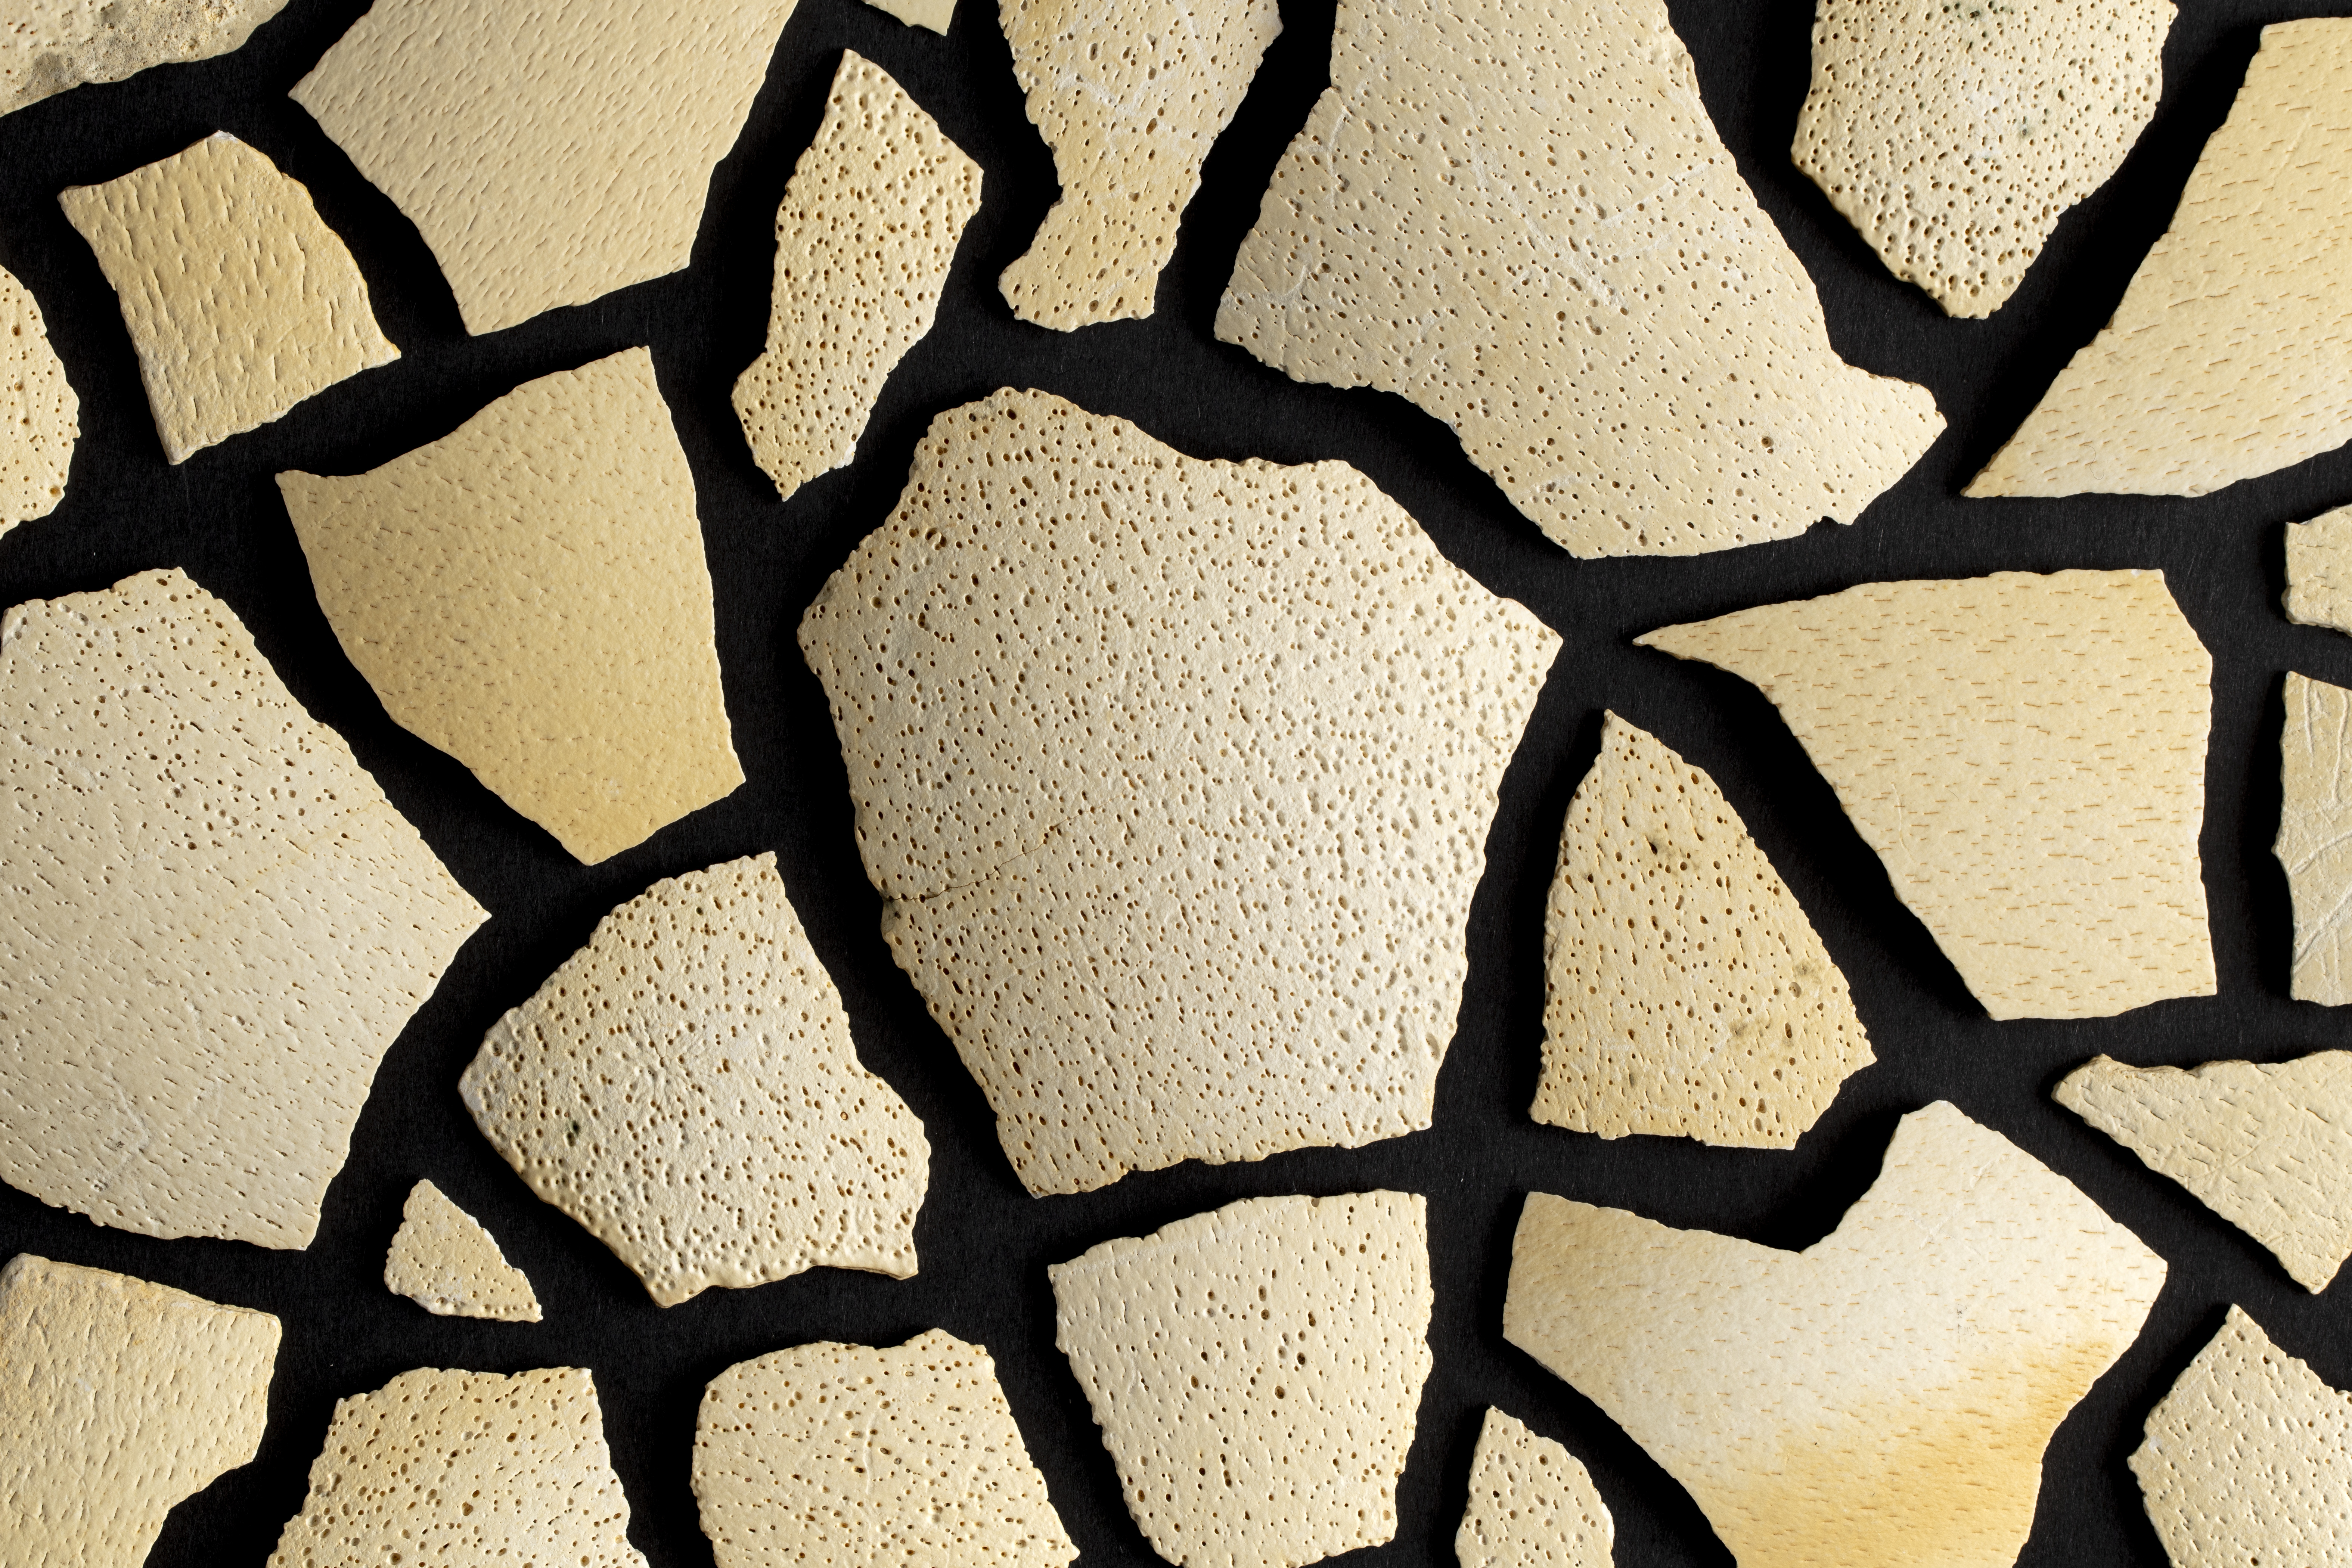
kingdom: Animalia
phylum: Chordata
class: Aves
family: Emeidae
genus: Euryapteryx
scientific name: Euryapteryx
